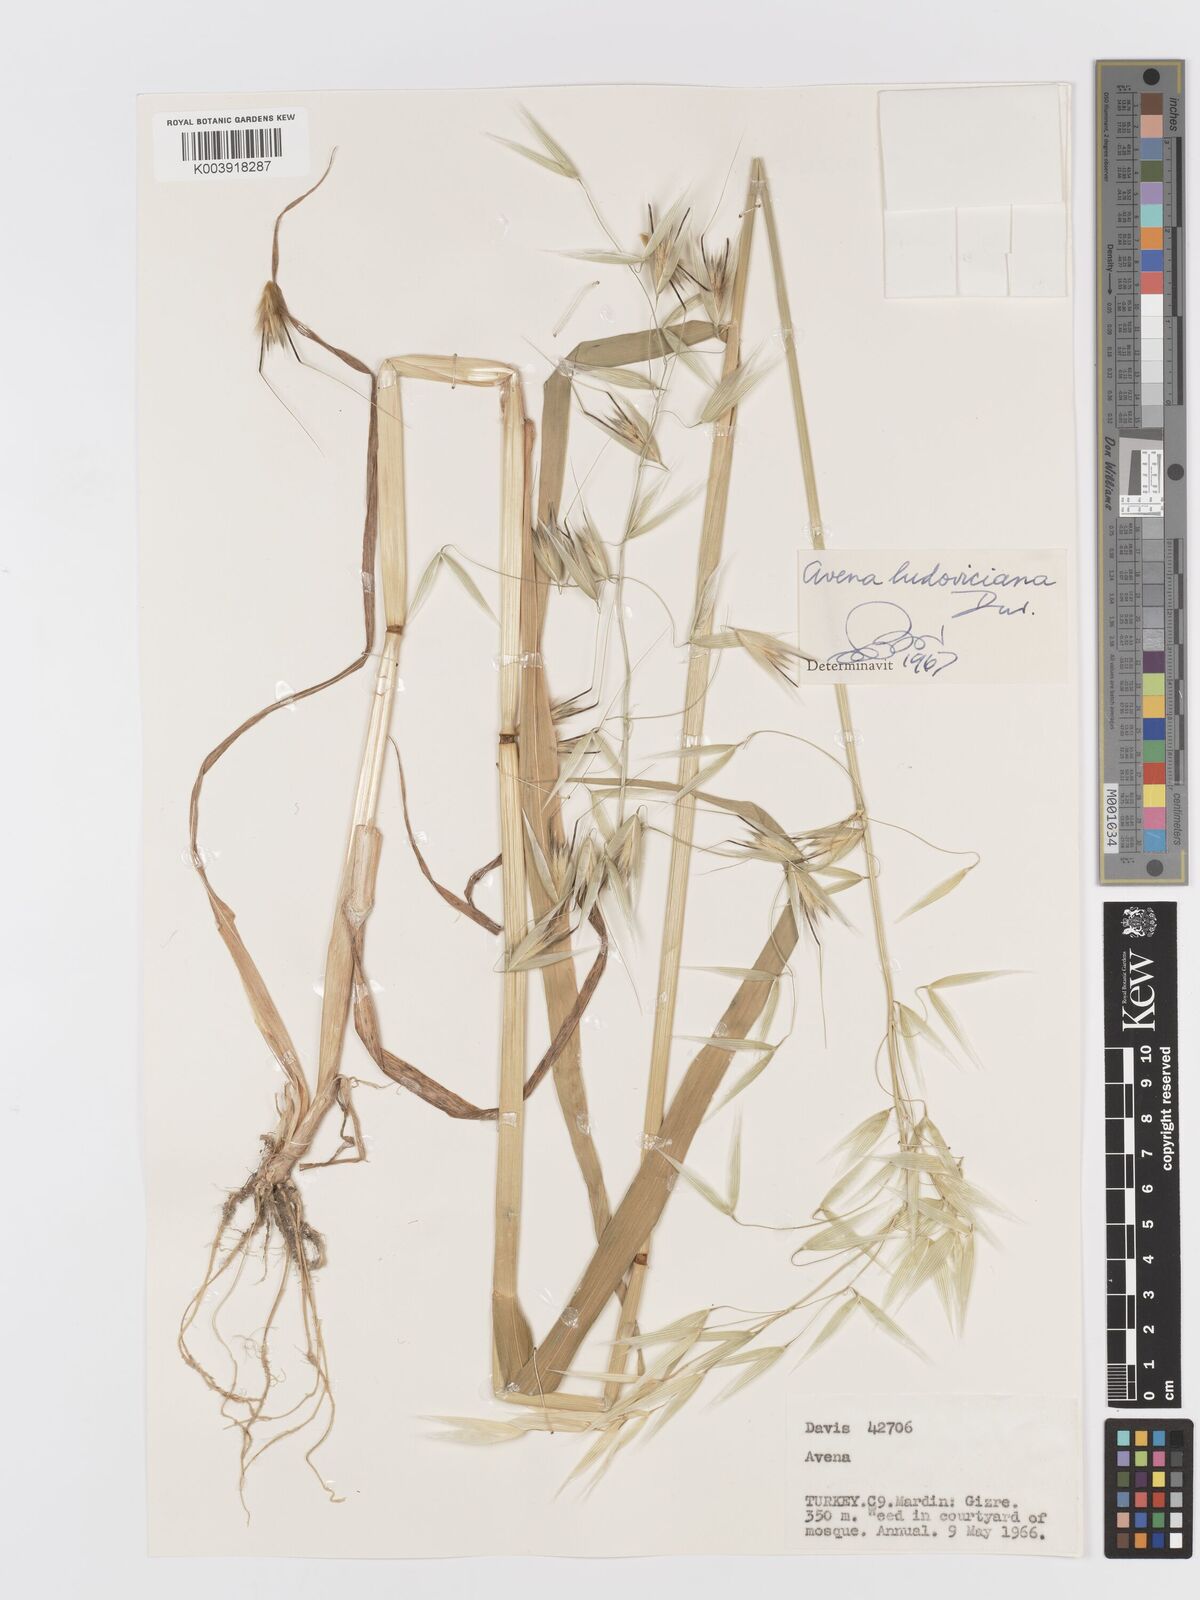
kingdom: Plantae
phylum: Tracheophyta
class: Liliopsida
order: Poales
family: Poaceae
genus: Avena
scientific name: Avena sterilis
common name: Animated oat
